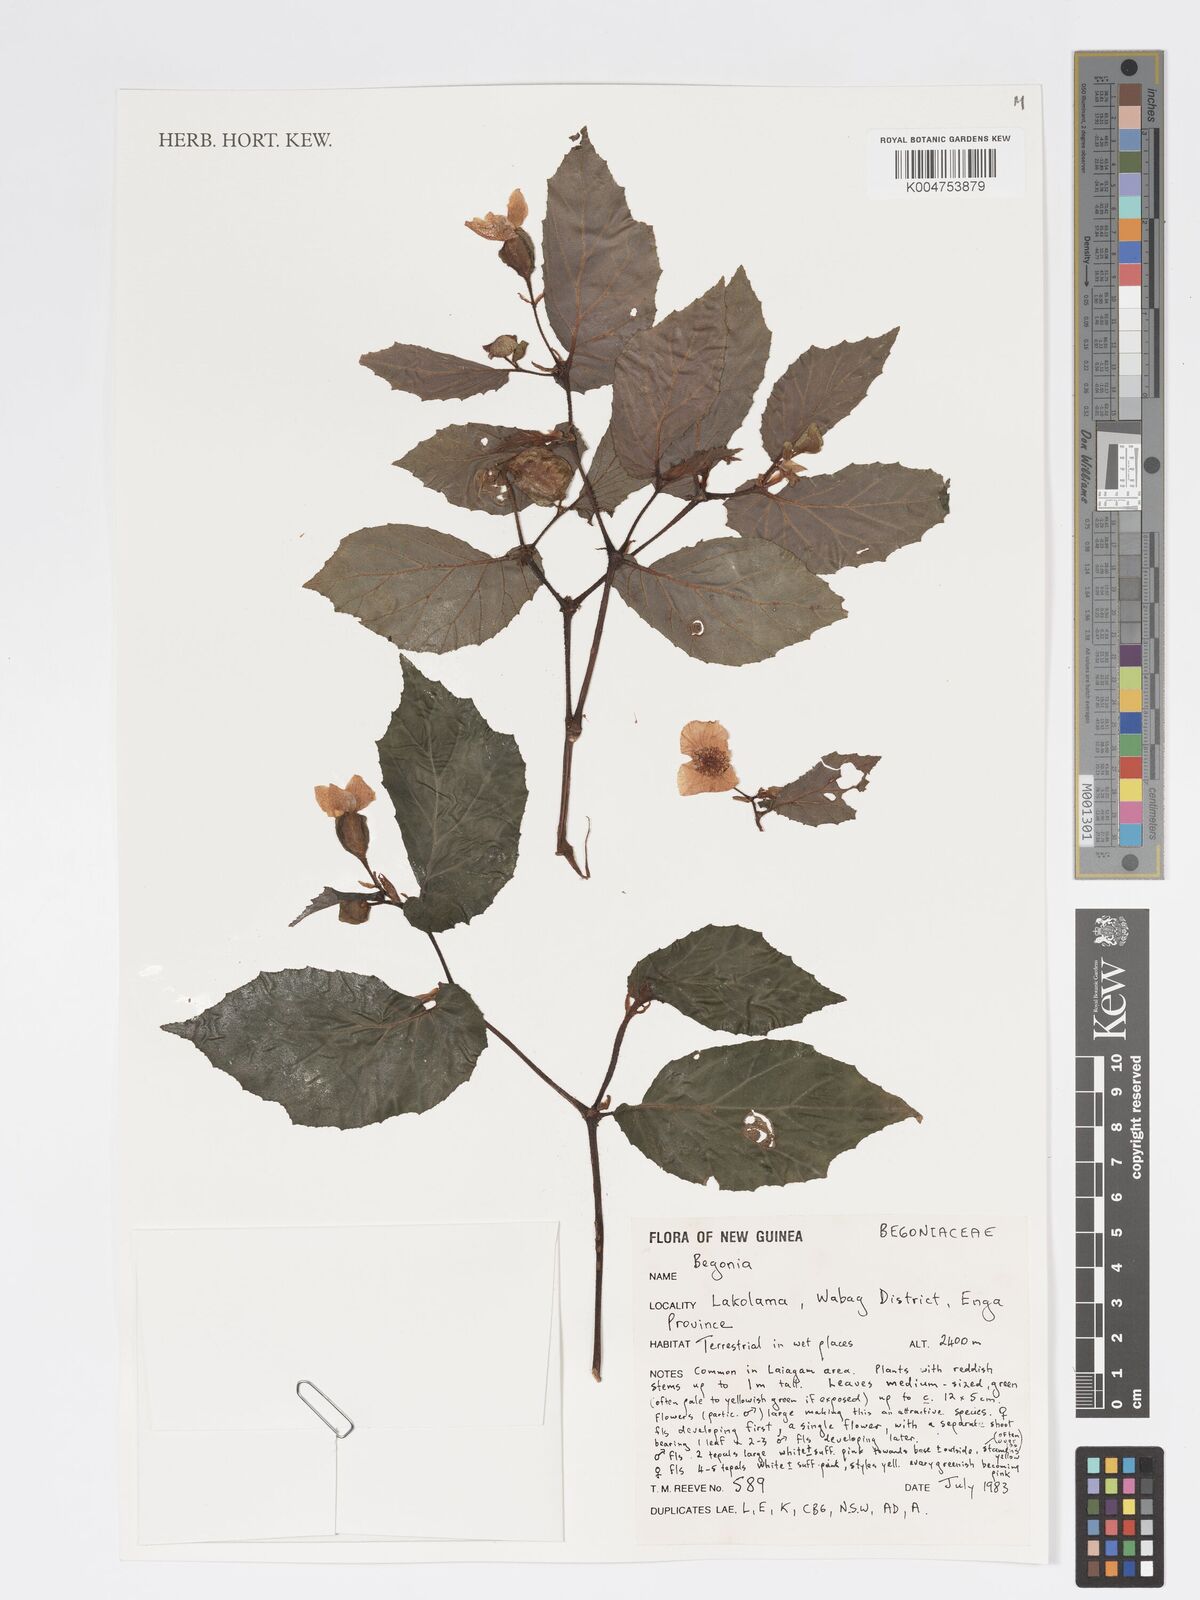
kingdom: Plantae
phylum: Tracheophyta
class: Magnoliopsida
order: Cucurbitales
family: Begoniaceae
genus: Begonia
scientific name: Begonia
